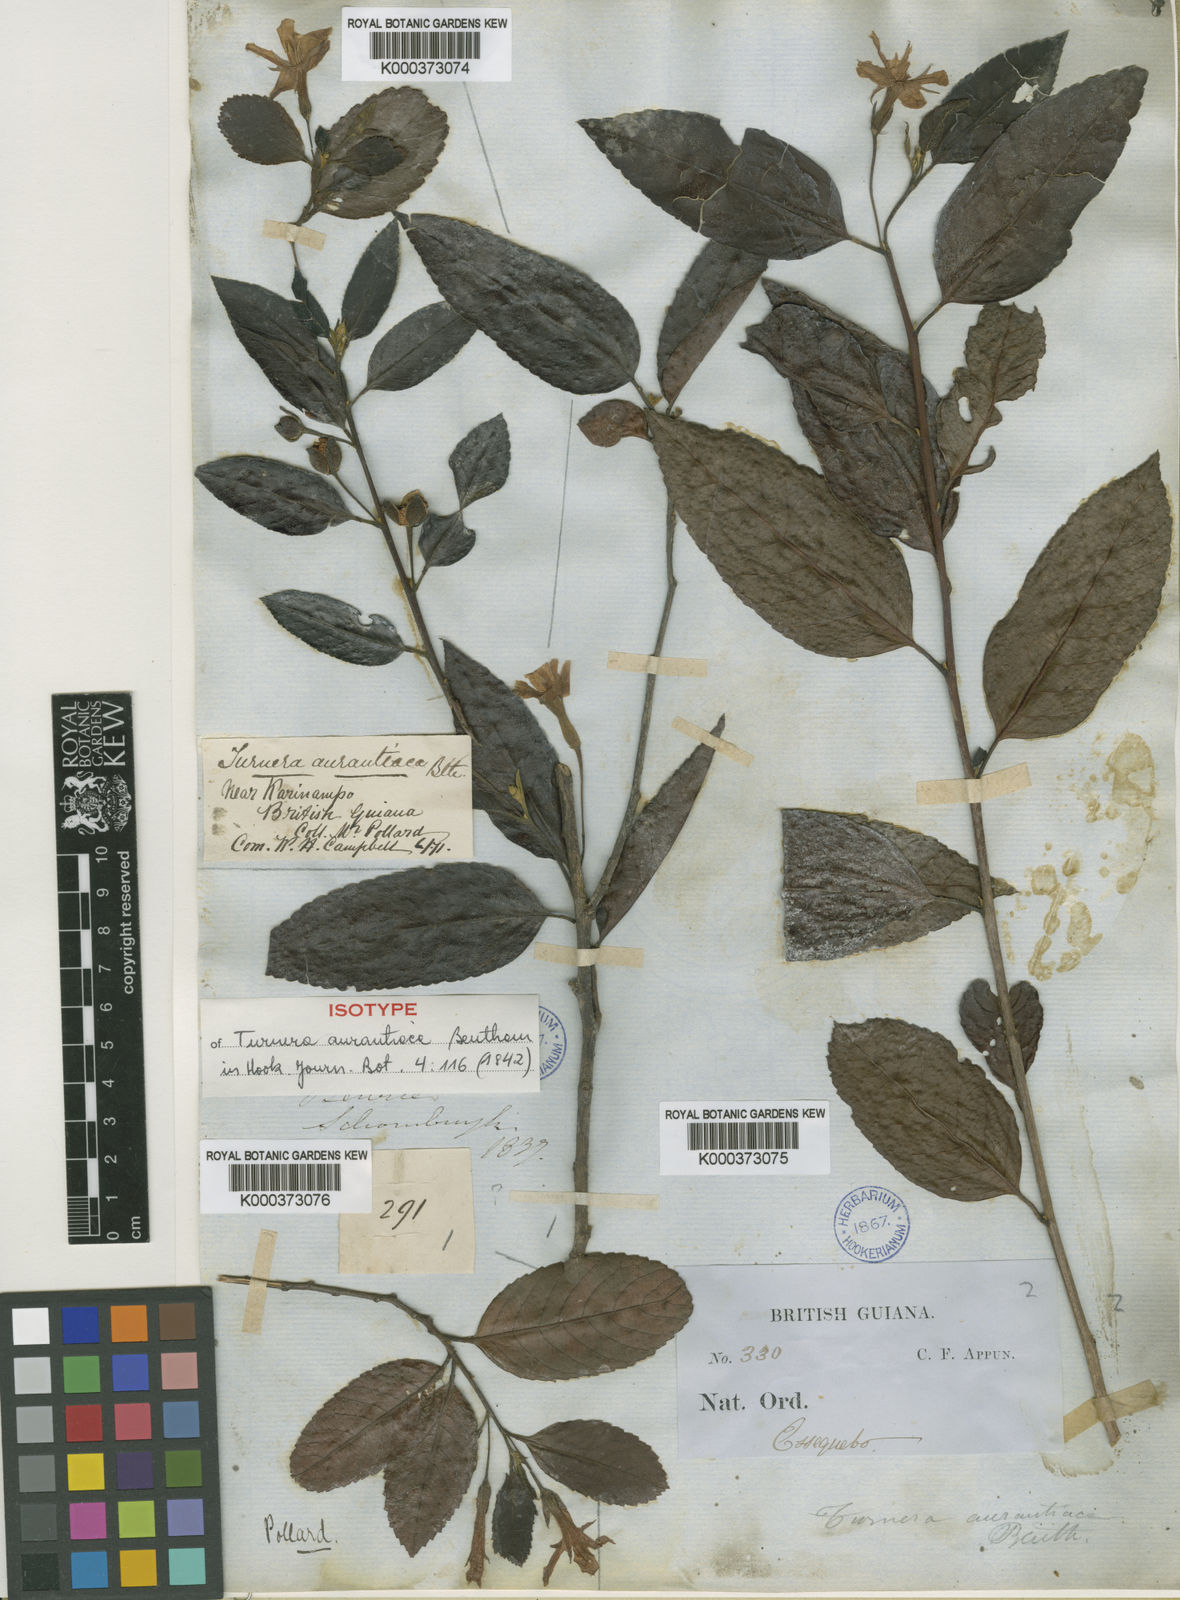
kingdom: Plantae
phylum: Tracheophyta
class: Magnoliopsida
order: Malpighiales
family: Turneraceae
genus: Turnera
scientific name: Turnera aurantiaca
